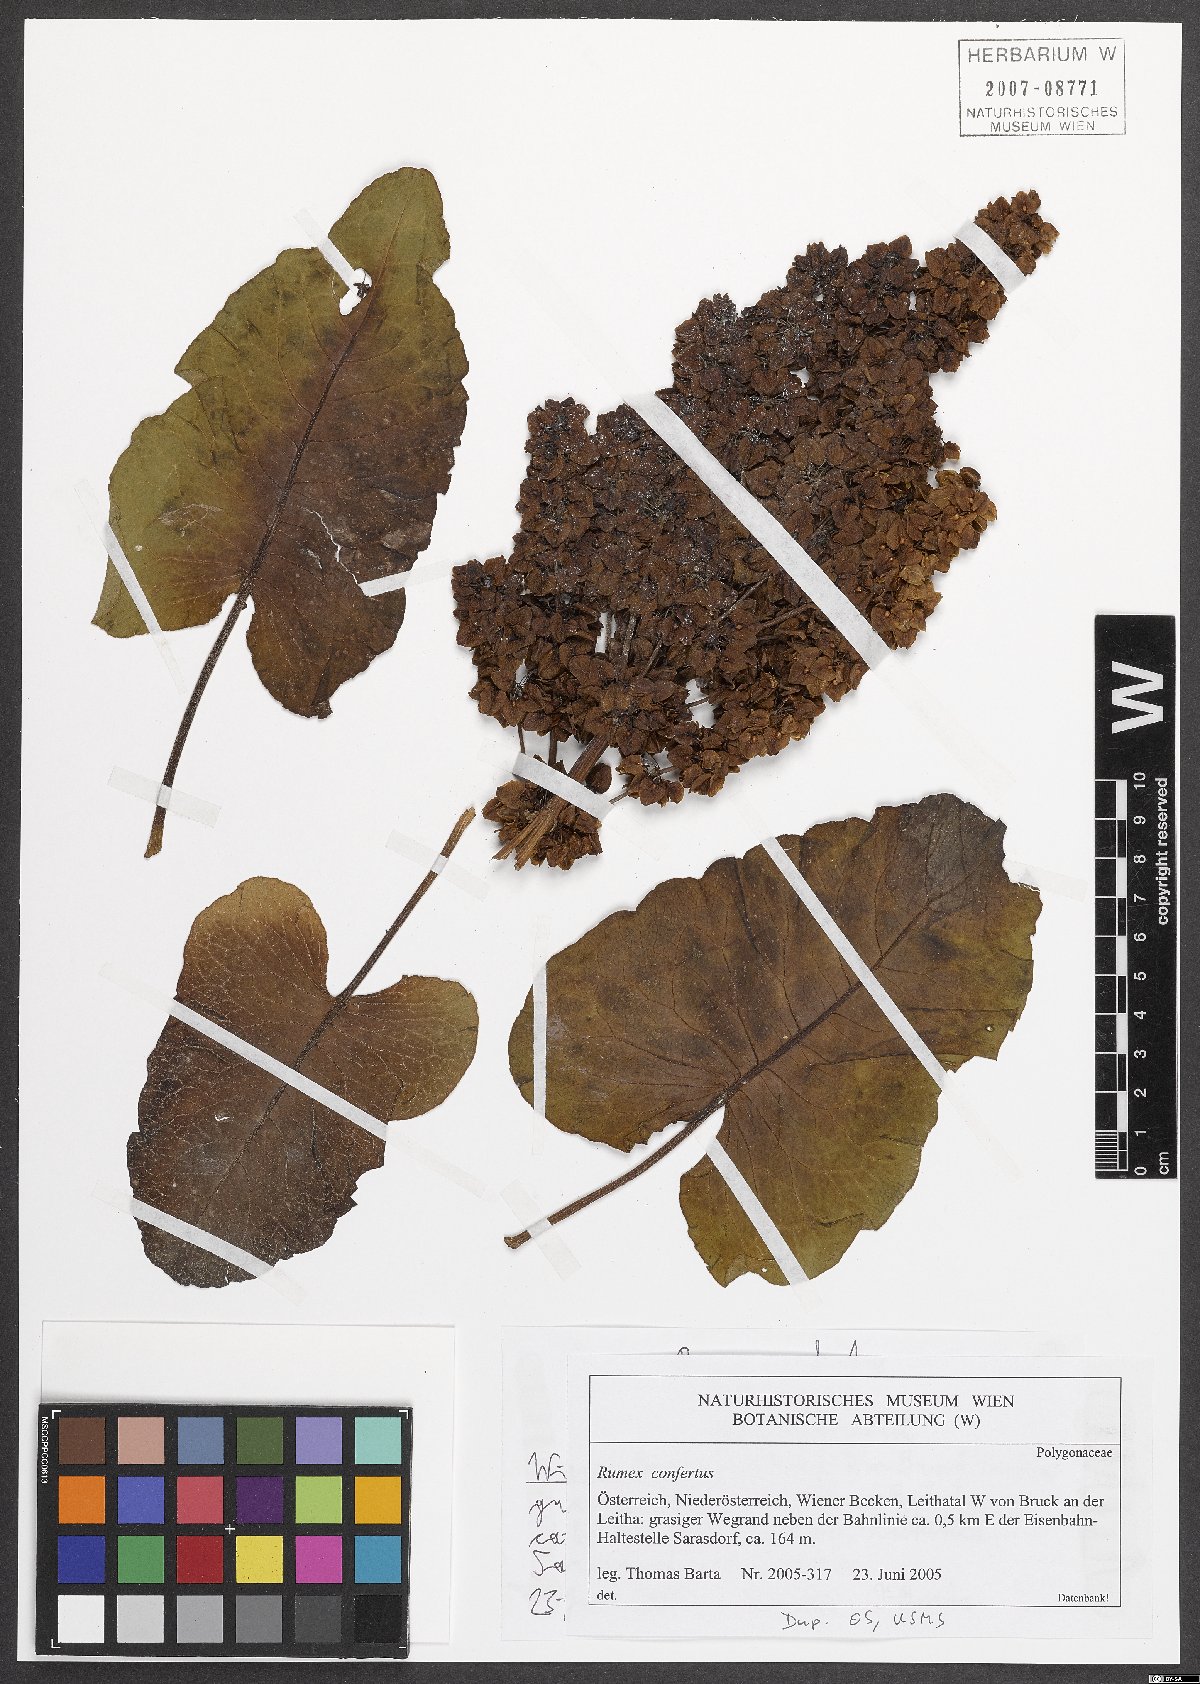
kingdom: Plantae
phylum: Tracheophyta
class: Magnoliopsida
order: Caryophyllales
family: Polygonaceae
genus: Rumex
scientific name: Rumex confertus
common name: Russian dock
